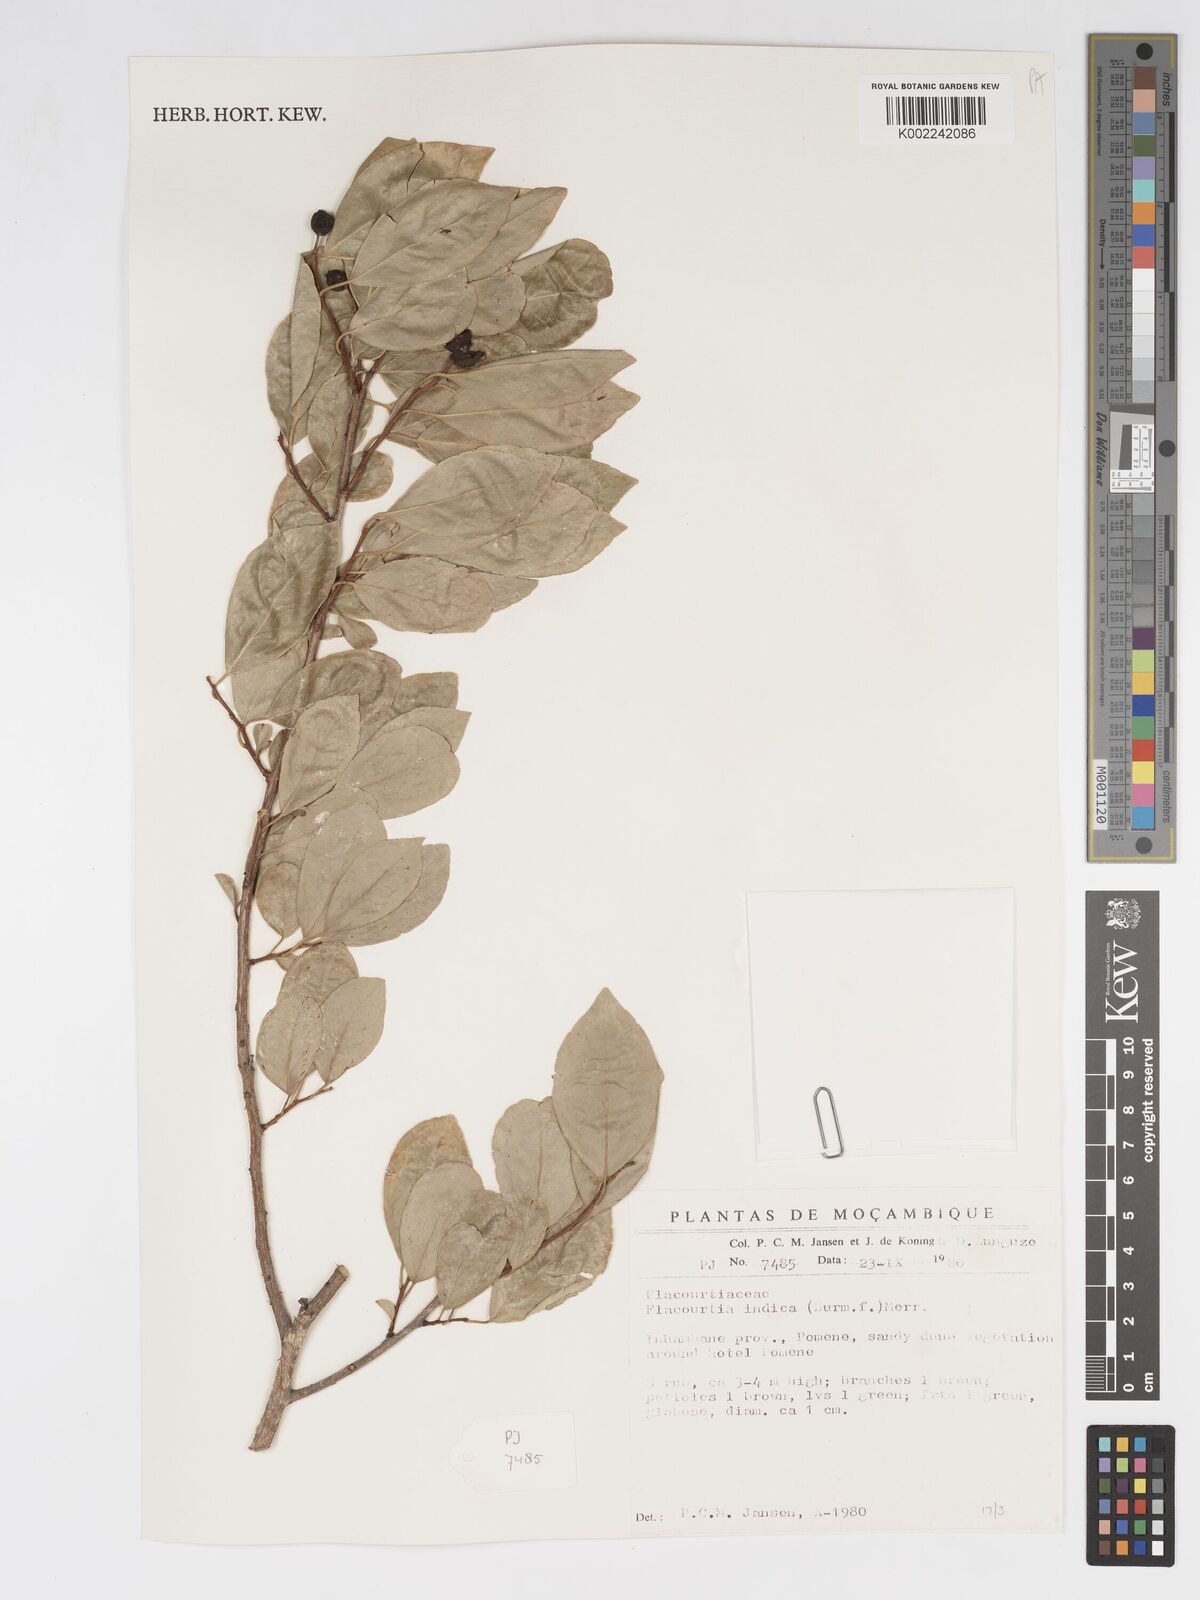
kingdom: Plantae
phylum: Tracheophyta
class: Magnoliopsida
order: Malpighiales
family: Salicaceae
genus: Flacourtia
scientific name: Flacourtia indica
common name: Governor's plum
